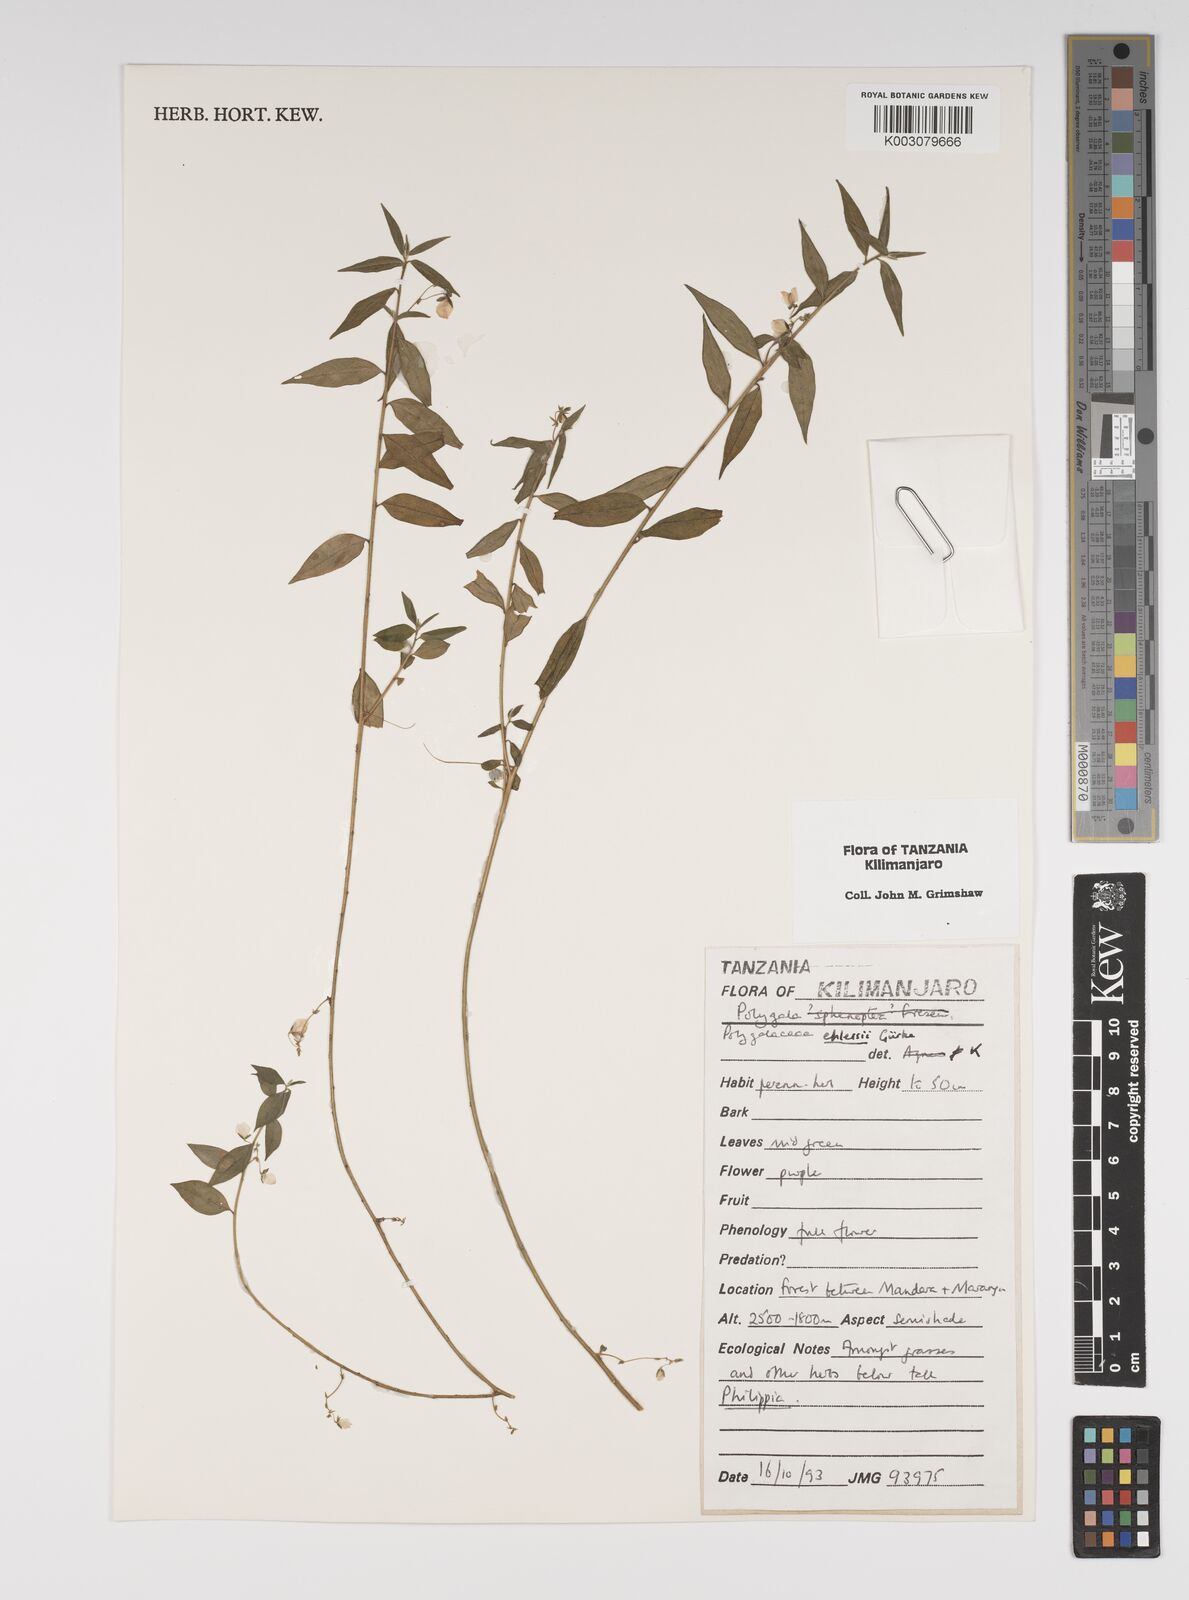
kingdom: Plantae
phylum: Tracheophyta
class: Magnoliopsida
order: Fabales
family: Polygalaceae
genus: Polygala
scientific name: Polygala ehlersii
